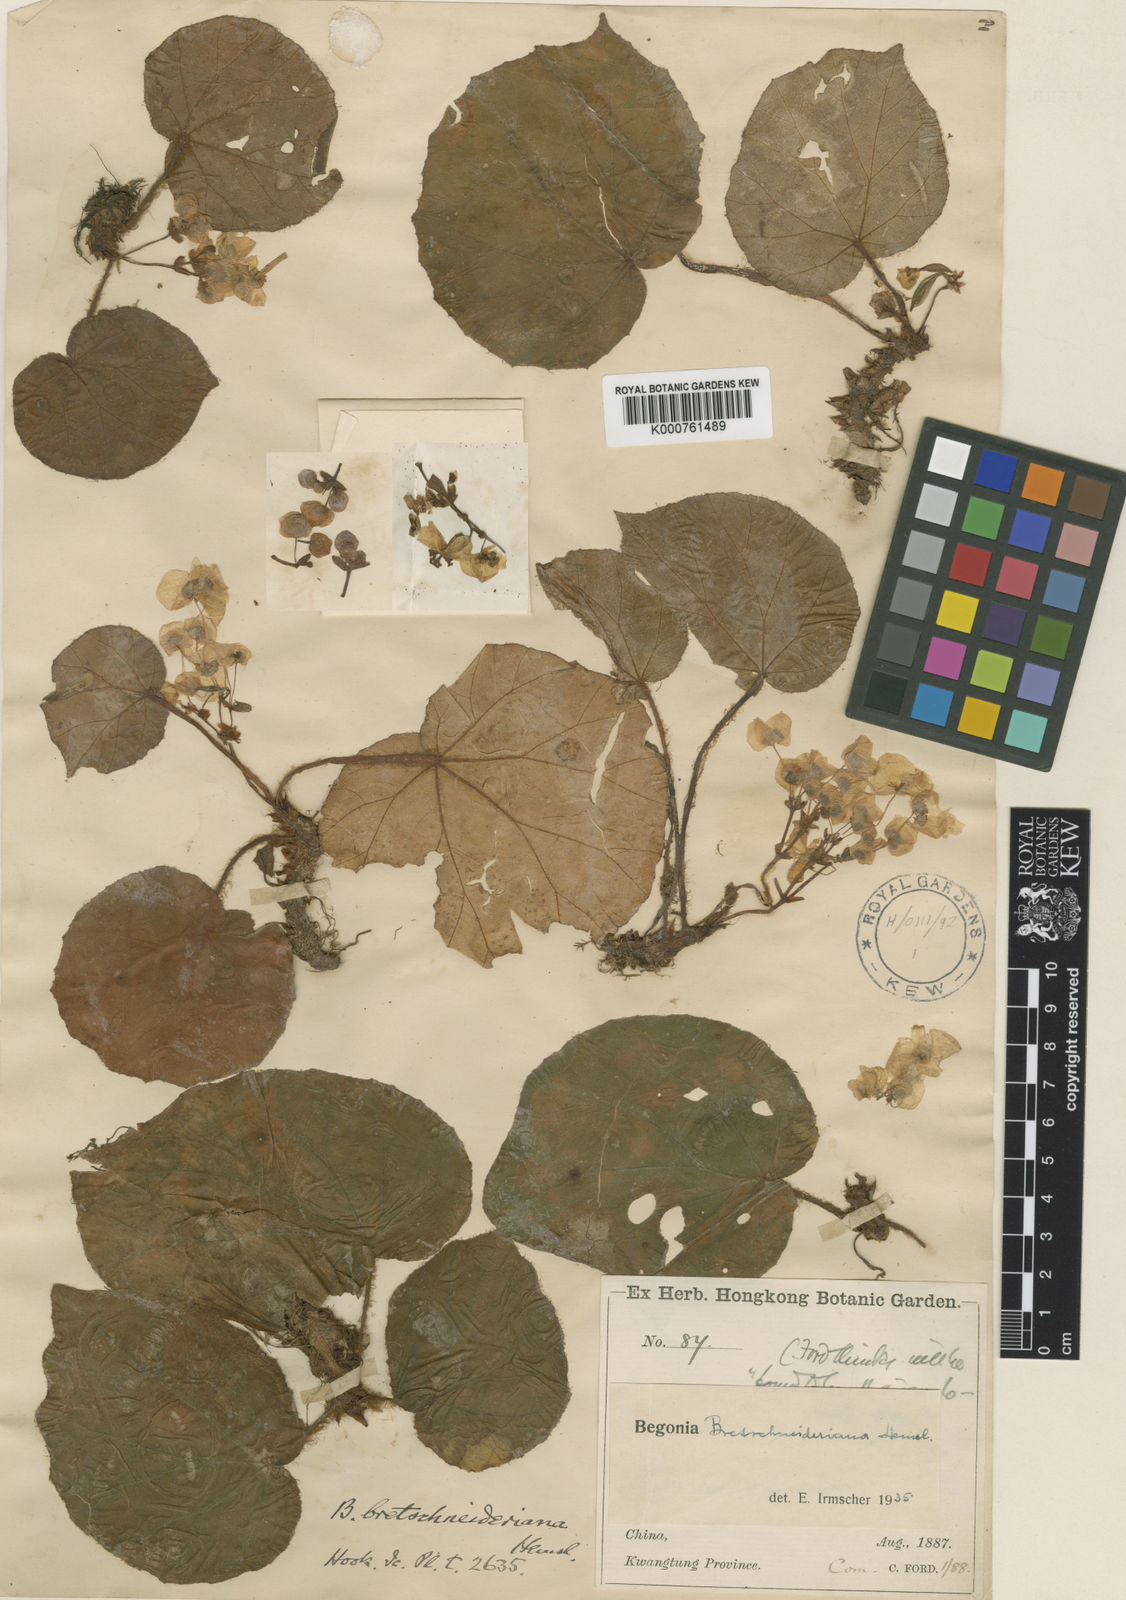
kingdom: Plantae
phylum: Tracheophyta
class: Magnoliopsida
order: Cucurbitales
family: Begoniaceae
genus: Begonia
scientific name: Begonia leprosa
